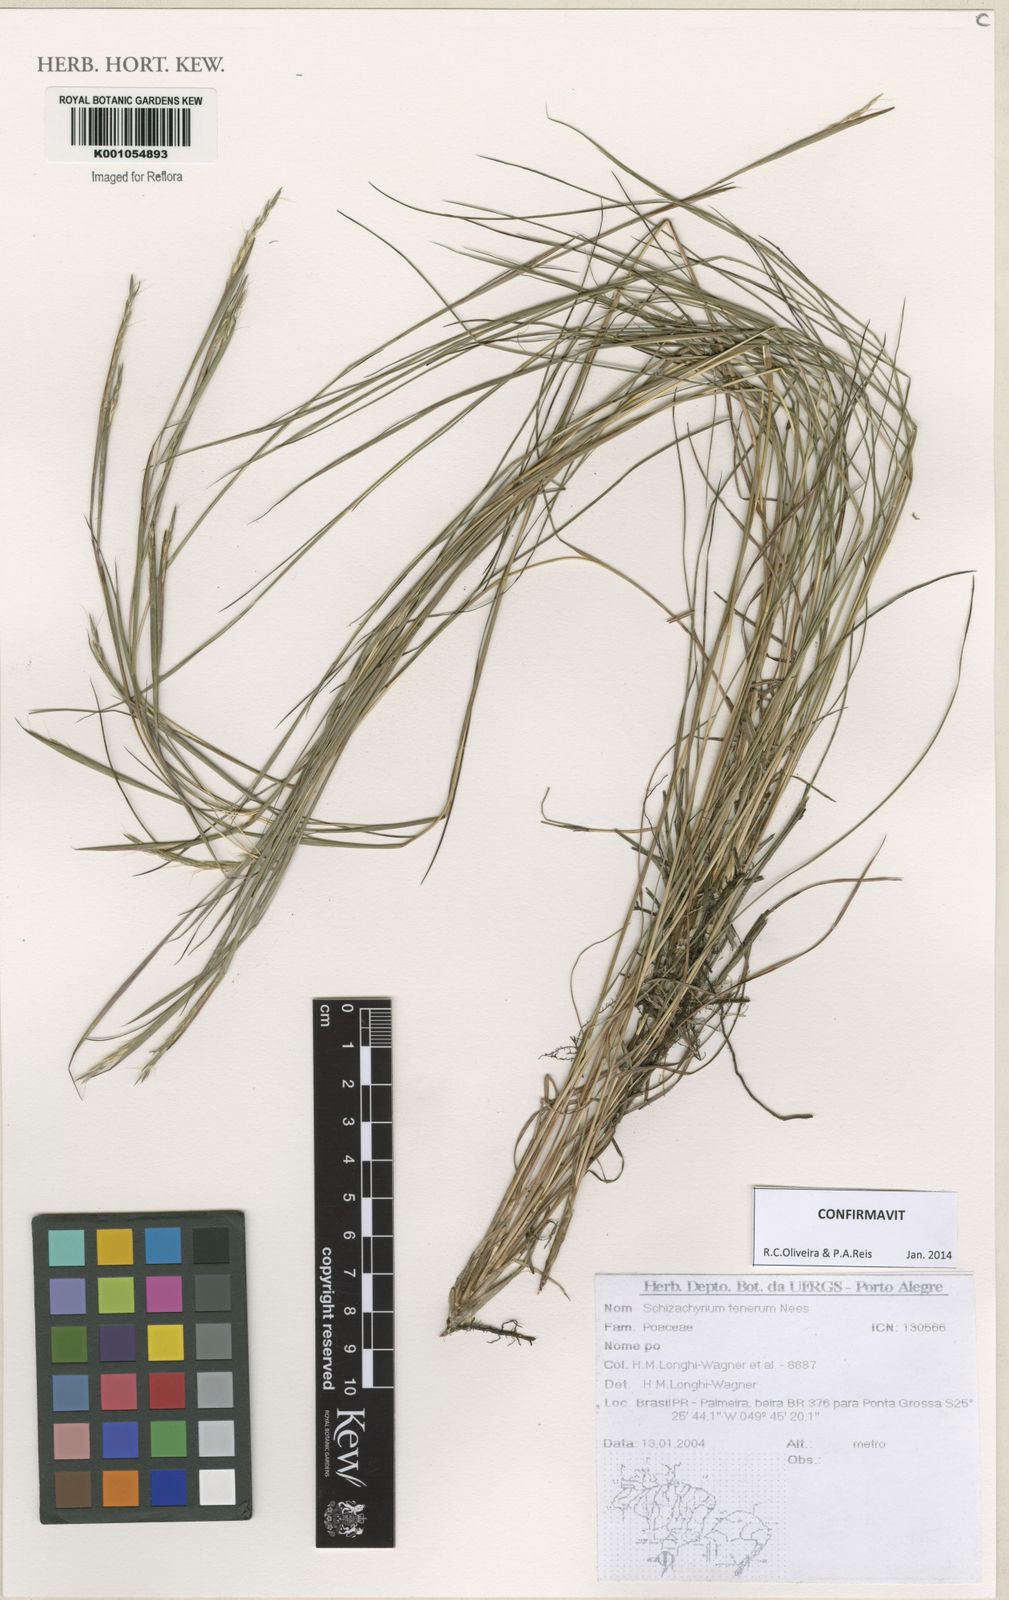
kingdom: Plantae
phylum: Tracheophyta
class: Liliopsida
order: Poales
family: Poaceae
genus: Andropogon
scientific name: Andropogon tener
